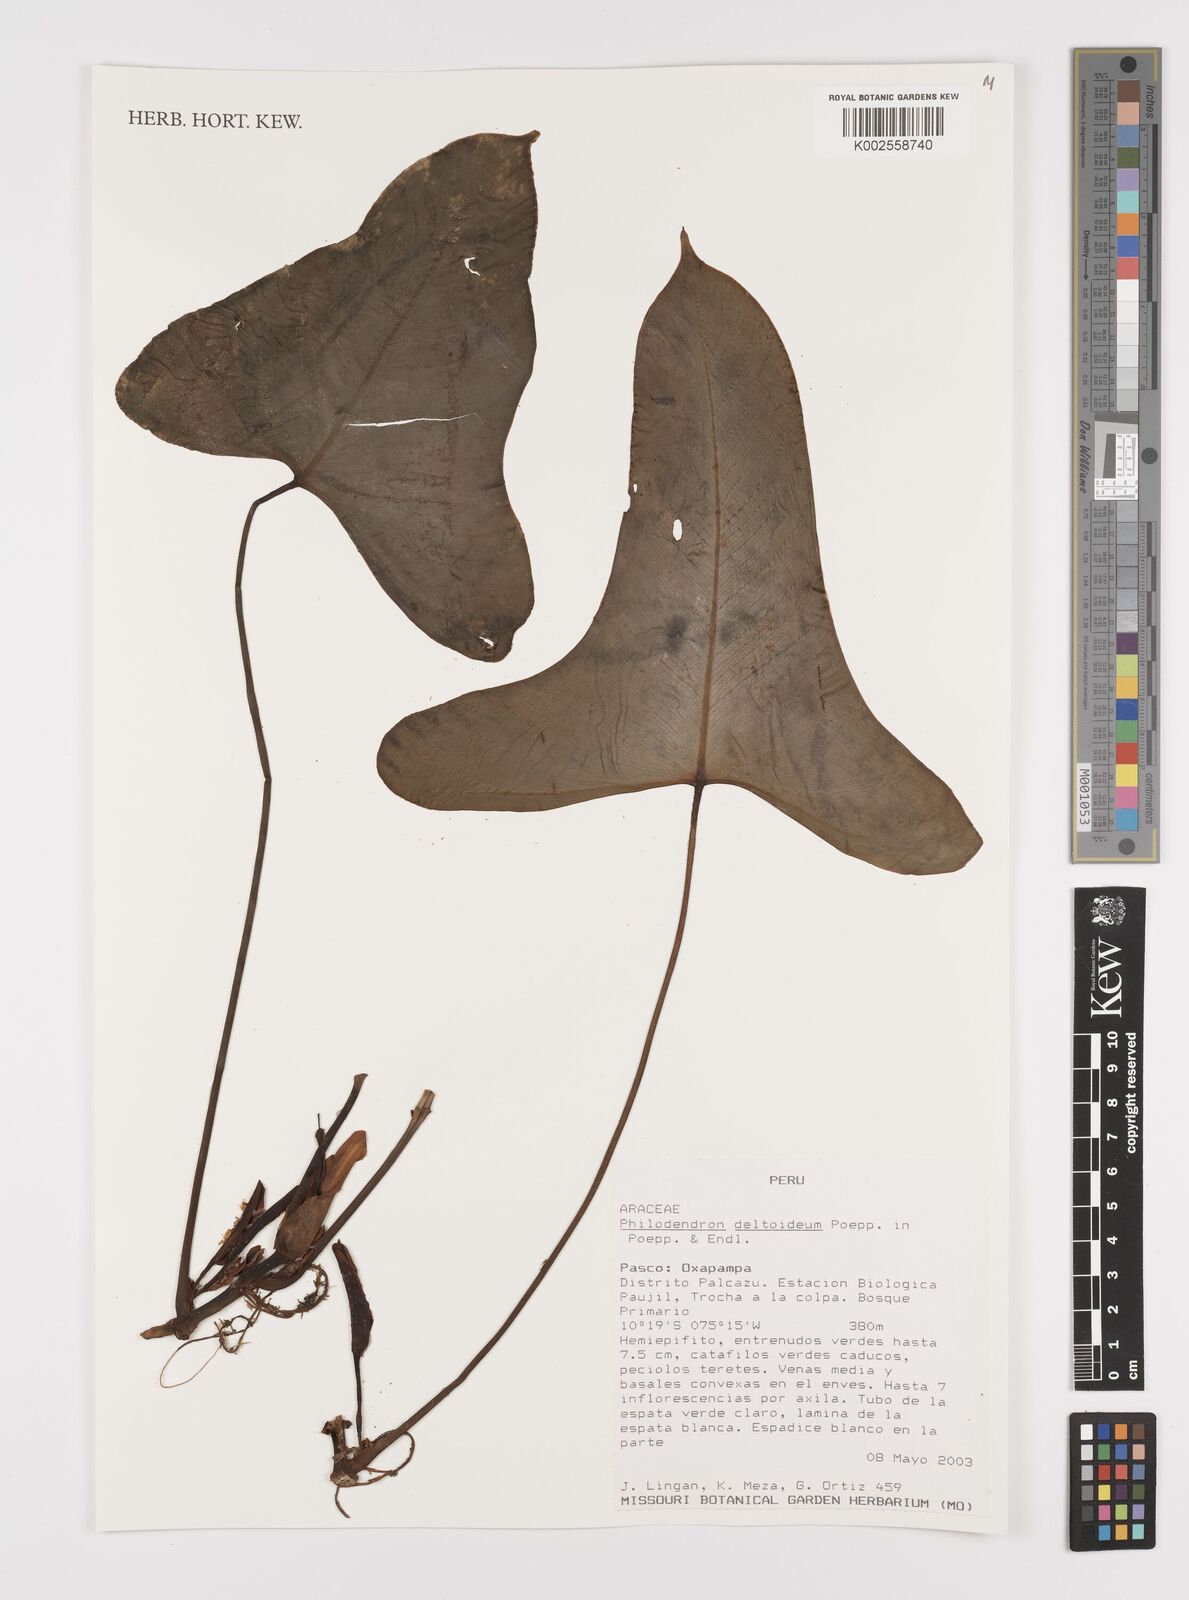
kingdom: Plantae
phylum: Tracheophyta
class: Liliopsida
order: Alismatales
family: Araceae
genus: Philodendron
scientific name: Philodendron deltoideum
